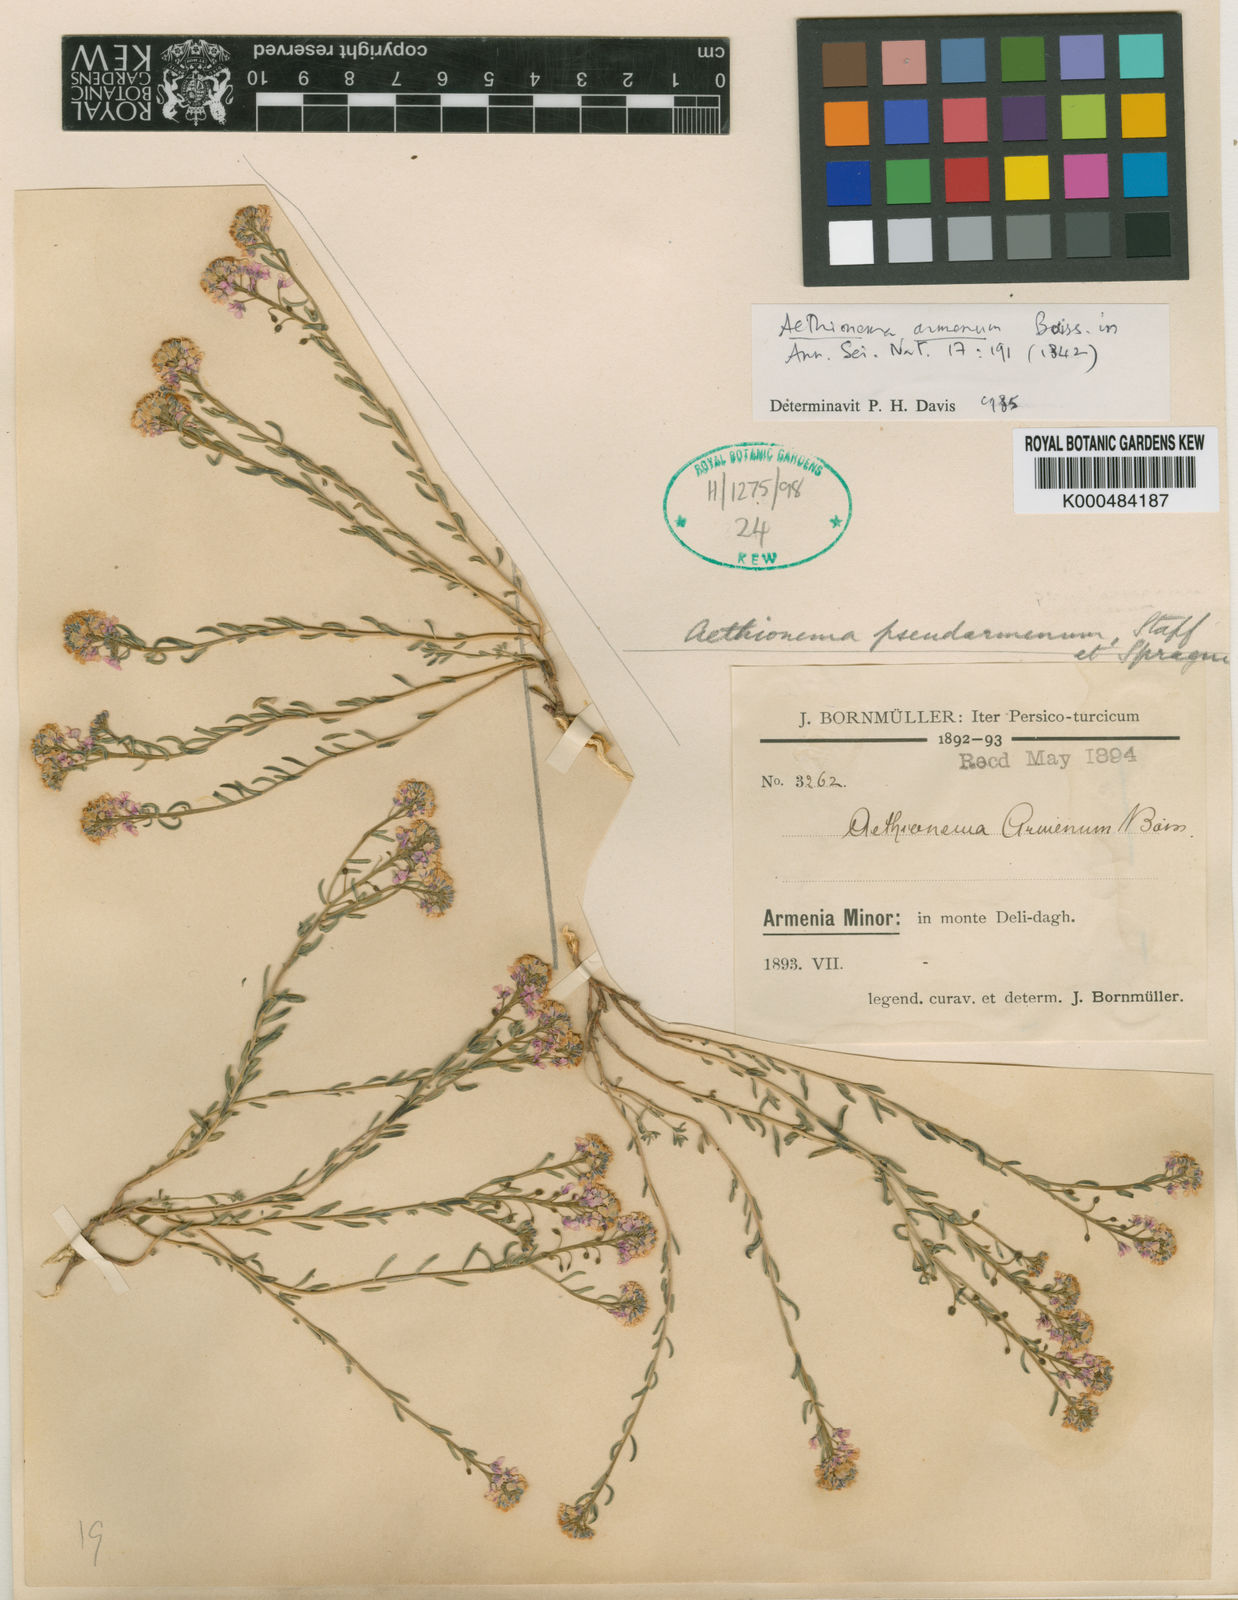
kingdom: Plantae
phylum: Tracheophyta
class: Magnoliopsida
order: Brassicales
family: Brassicaceae
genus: Aethionema
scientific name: Aethionema armenum
